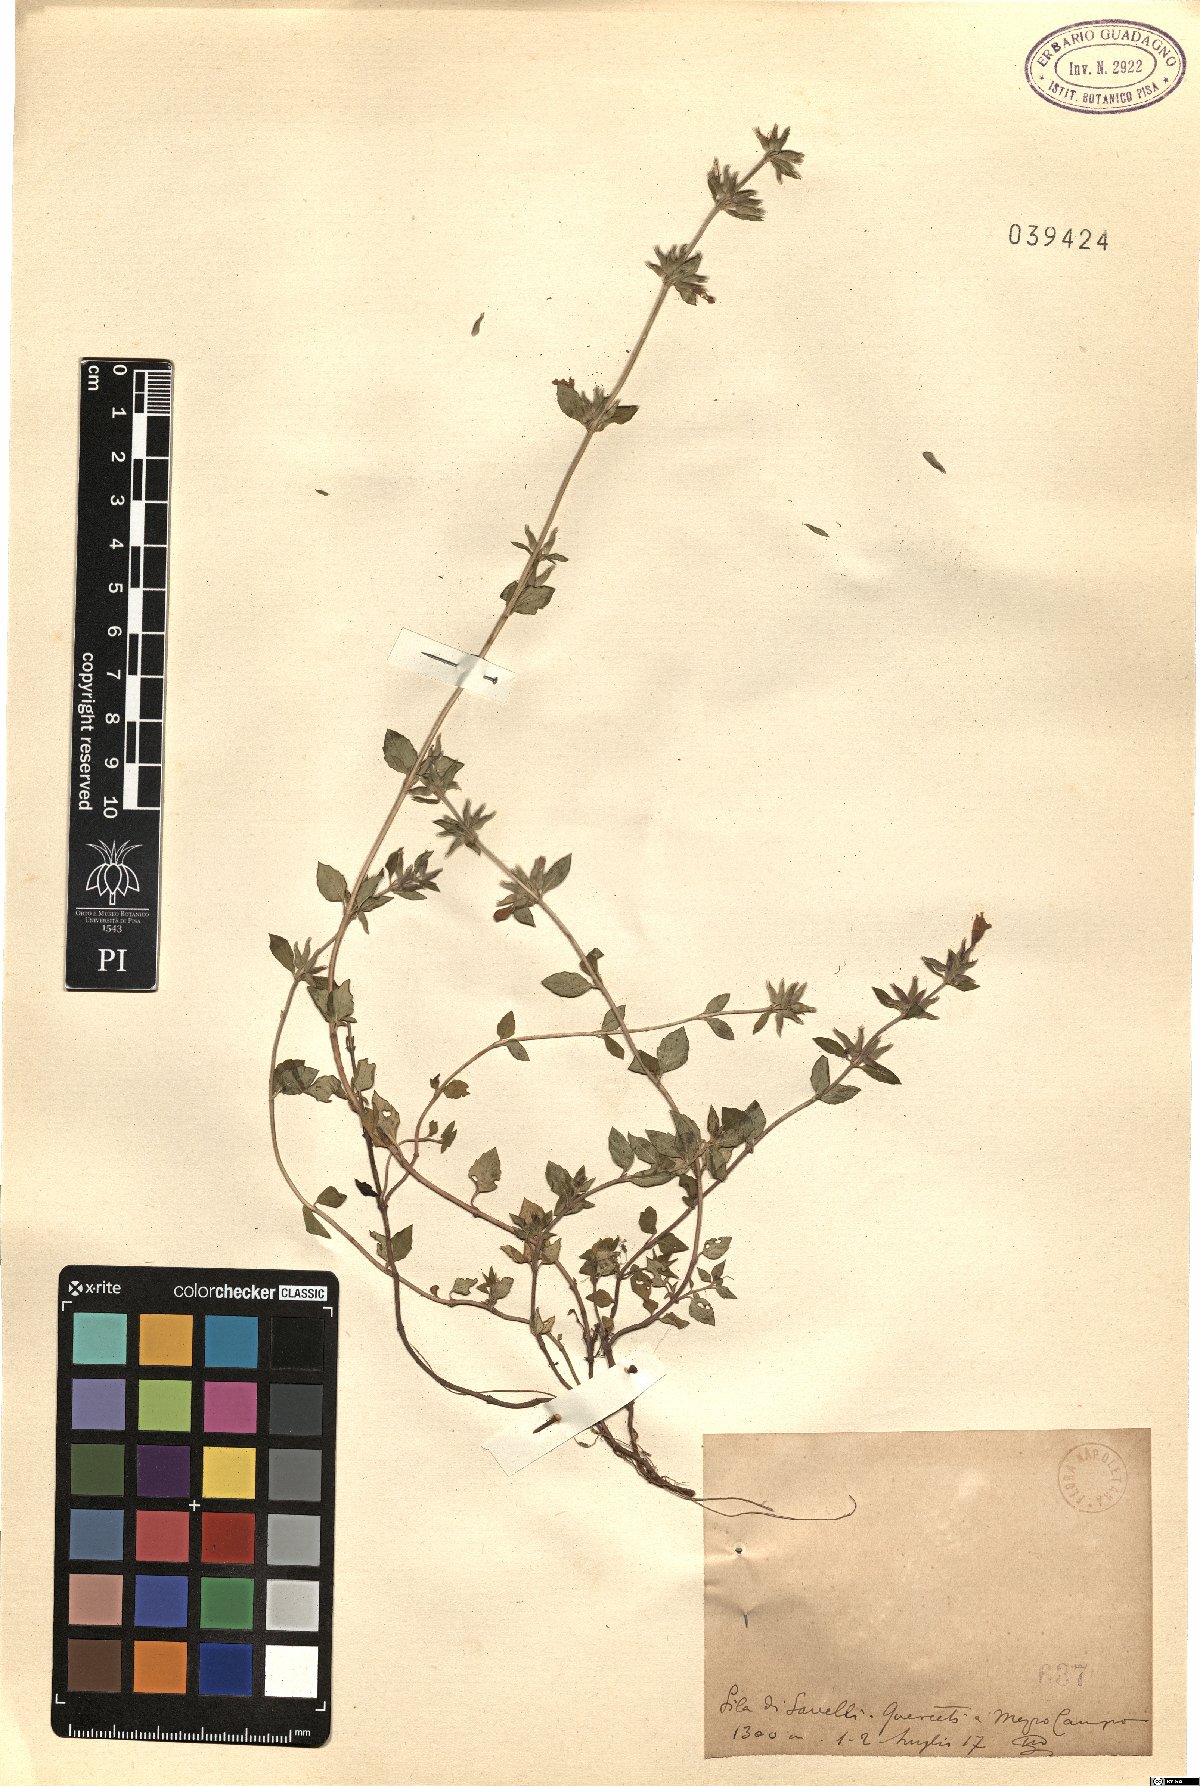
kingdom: Plantae
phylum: Tracheophyta
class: Magnoliopsida
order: Lamiales
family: Lamiaceae
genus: Calamintha
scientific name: Calamintha
